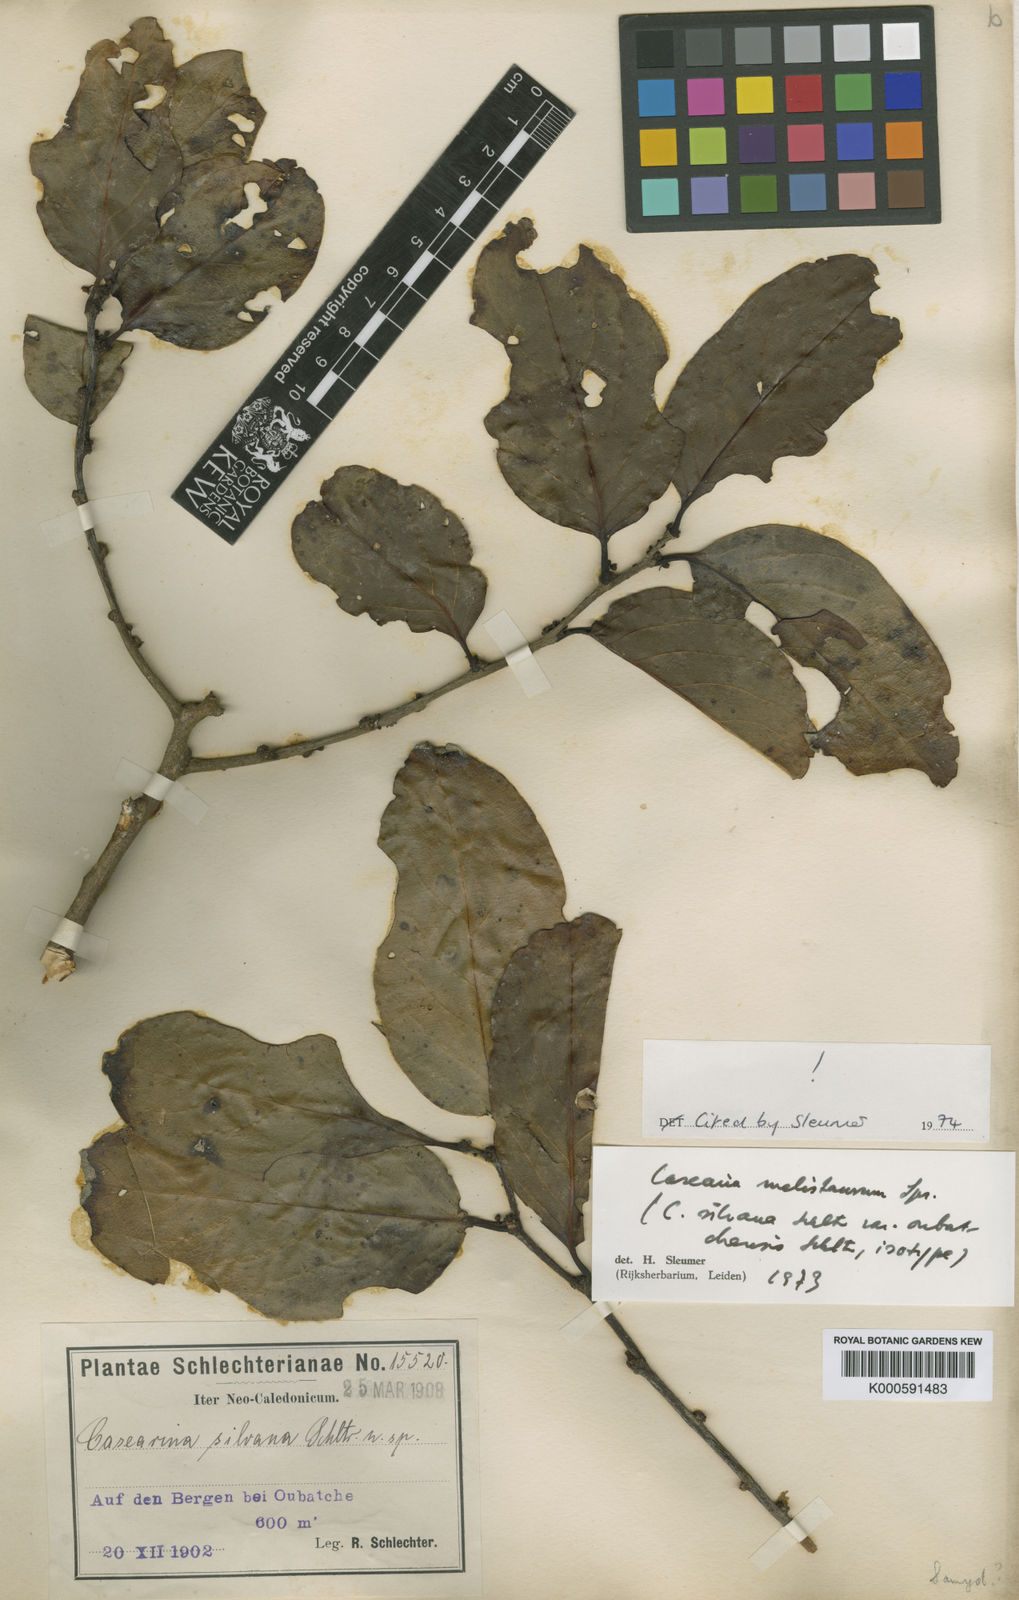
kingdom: Plantae
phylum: Tracheophyta
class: Magnoliopsida
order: Malpighiales
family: Salicaceae
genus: Casearia
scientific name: Casearia silvana
